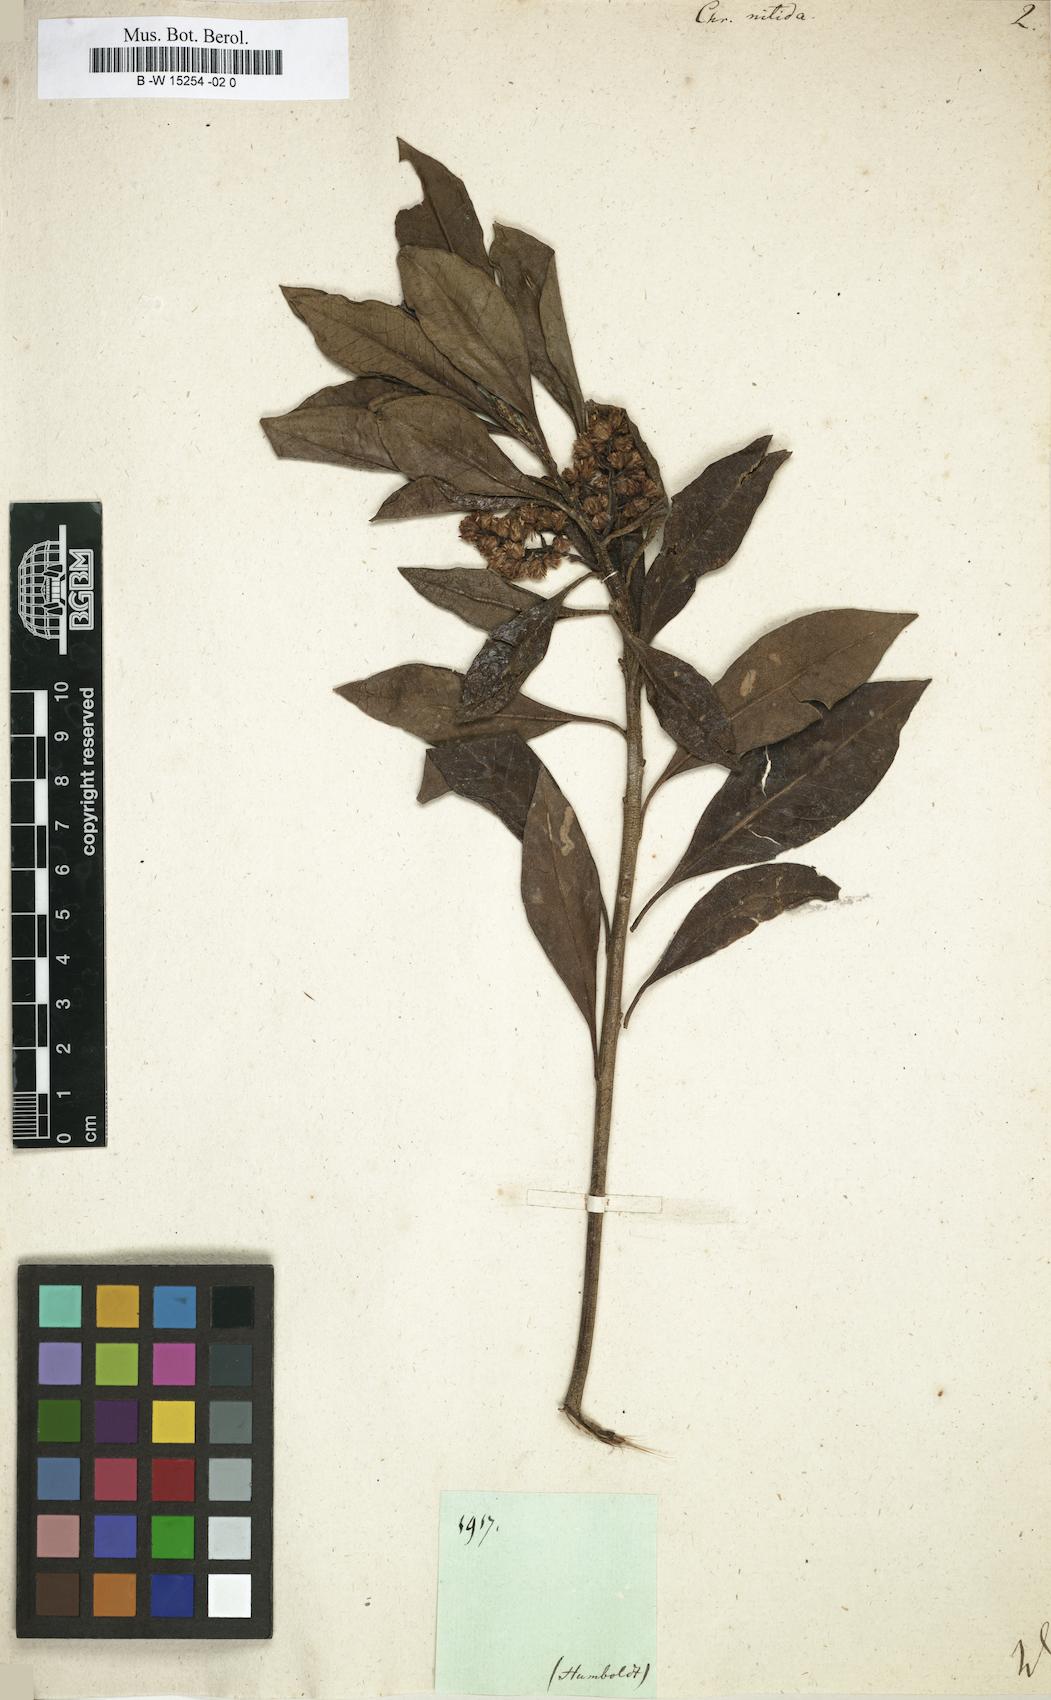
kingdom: Plantae
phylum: Tracheophyta
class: Magnoliopsida
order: Asterales
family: Asteraceae
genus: Chrysocoma
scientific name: Chrysocoma
